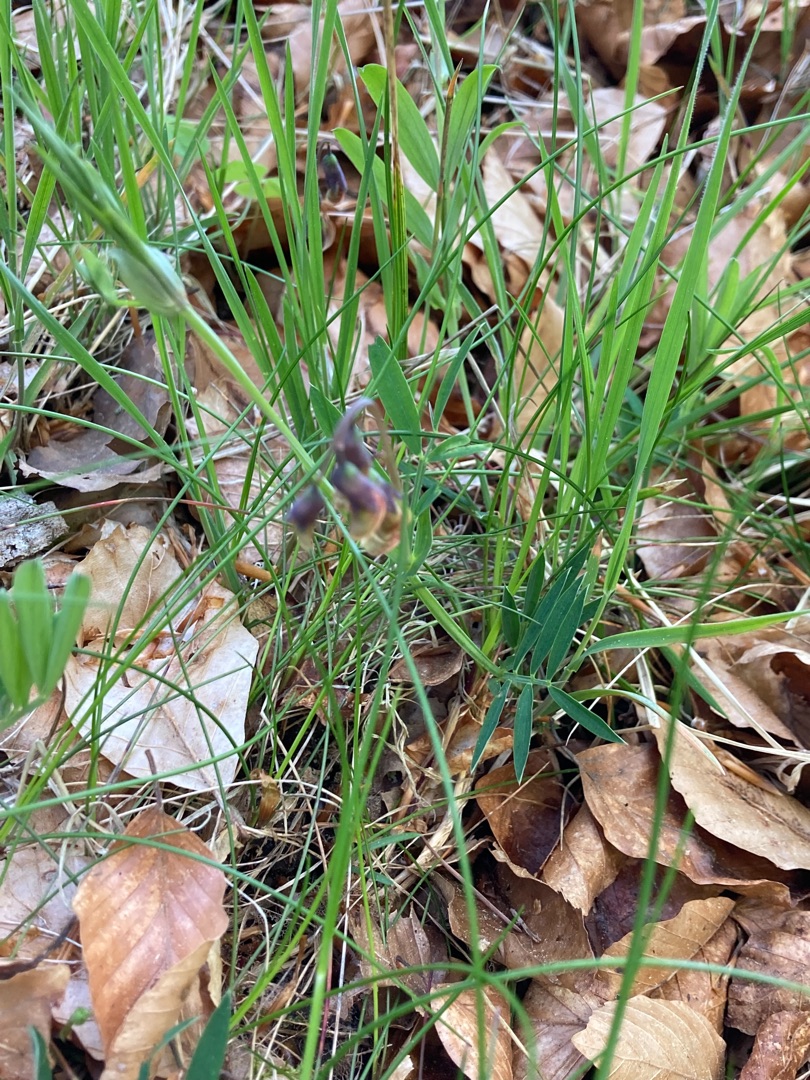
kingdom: Plantae
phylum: Tracheophyta
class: Magnoliopsida
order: Fabales
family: Fabaceae
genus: Lathyrus
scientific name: Lathyrus linifolius
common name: Krat-fladbælg
